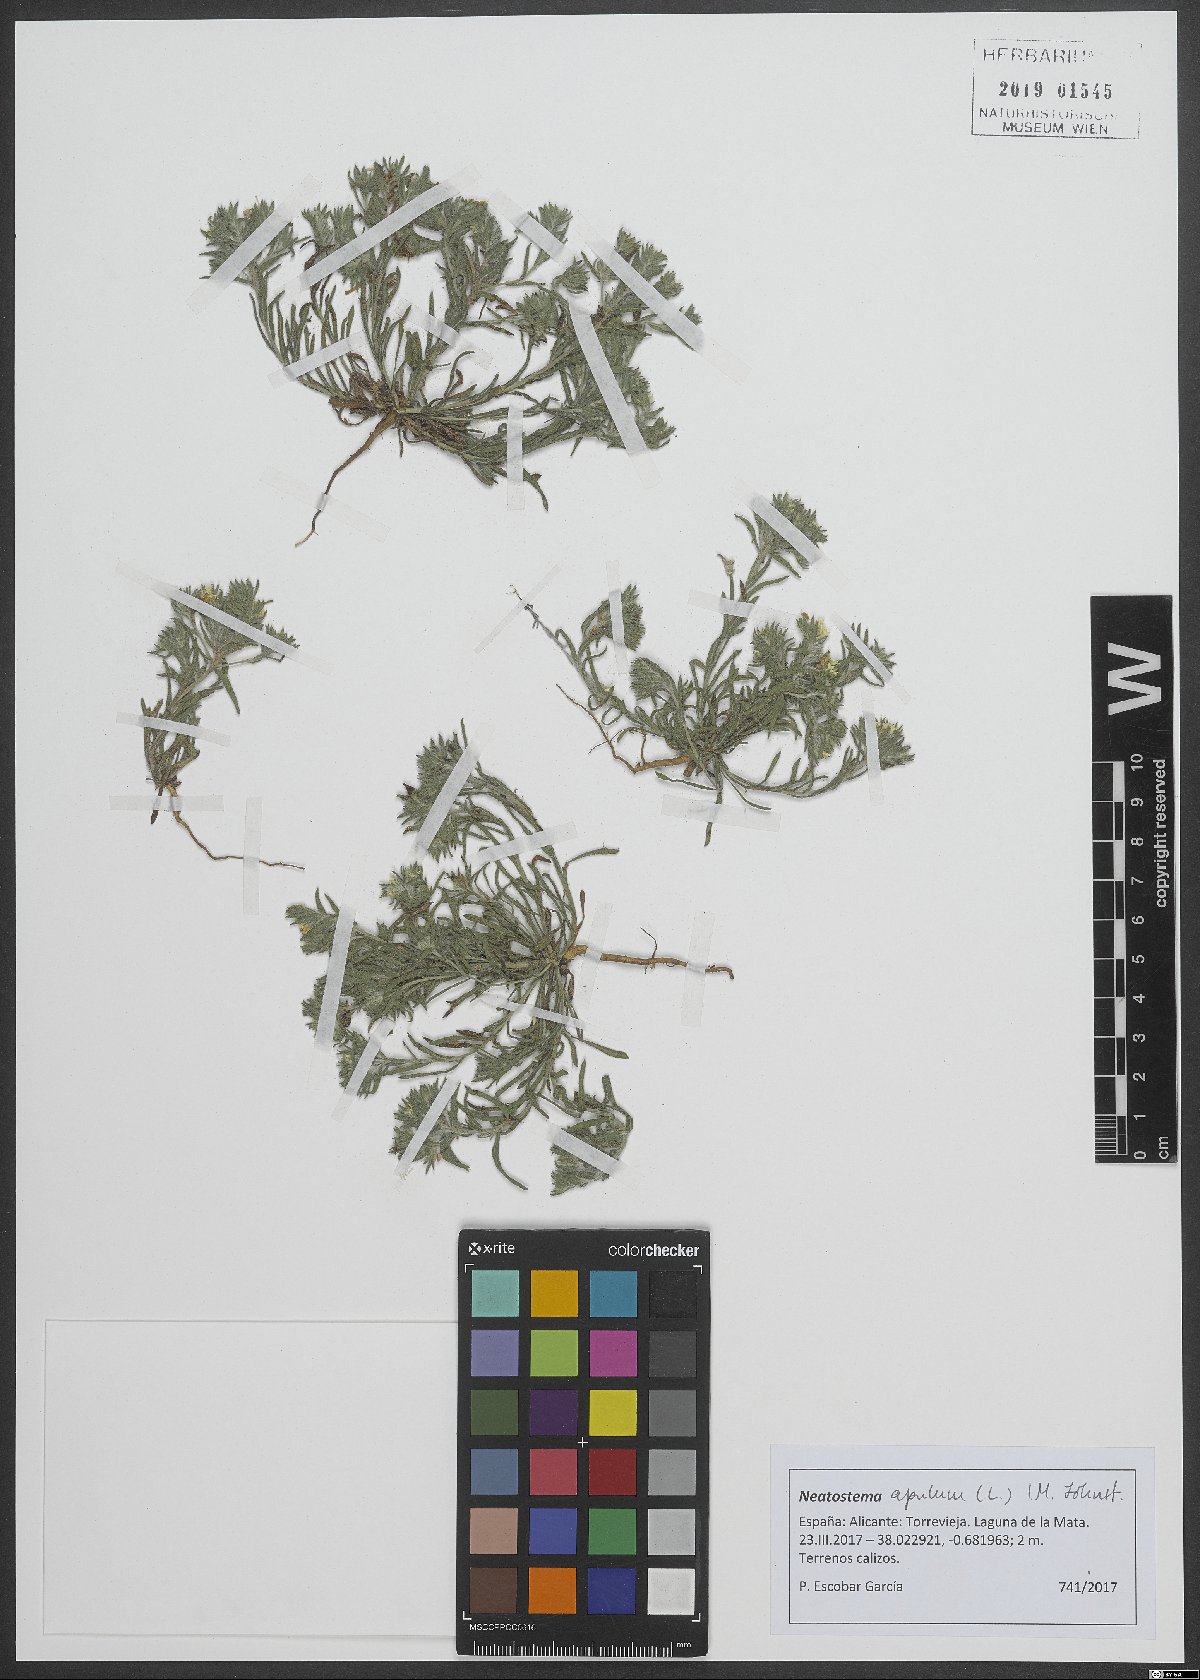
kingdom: Plantae
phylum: Tracheophyta
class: Magnoliopsida
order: Boraginales
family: Boraginaceae
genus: Neatostema
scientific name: Neatostema apulum
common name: Hairy sheepweed
